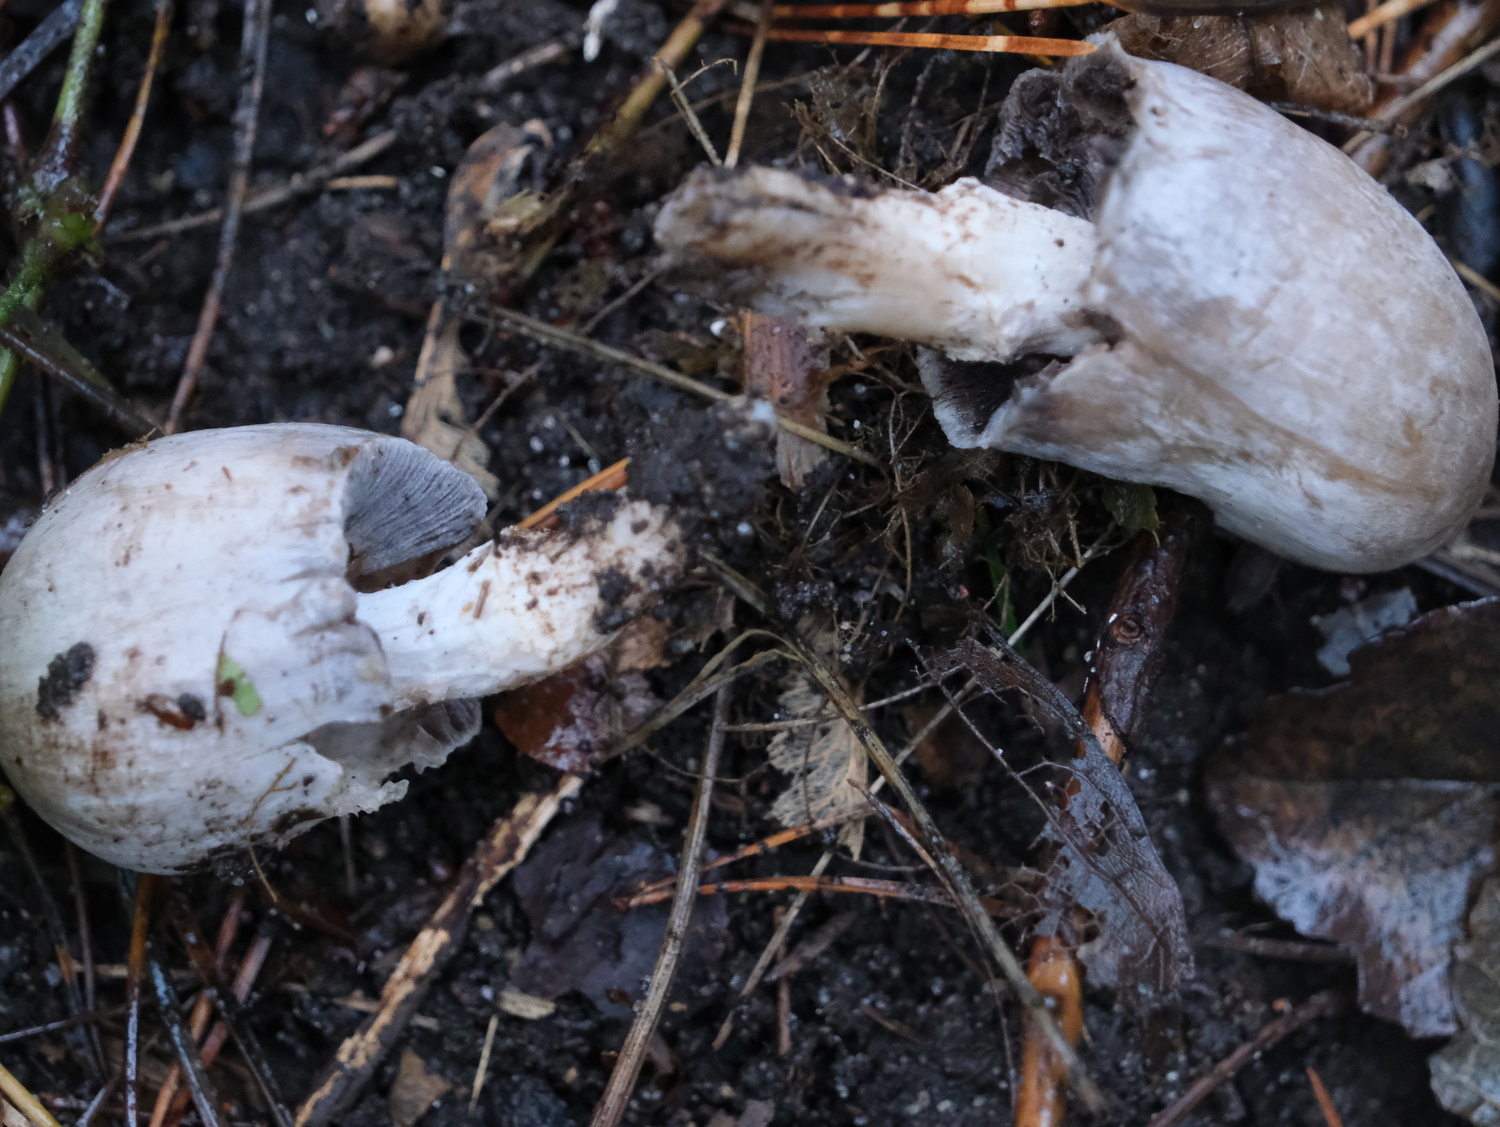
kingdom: Fungi
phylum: Basidiomycota
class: Agaricomycetes
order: Agaricales
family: Psathyrellaceae
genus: Coprinopsis
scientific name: Coprinopsis atramentaria
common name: almindelig blækhat
